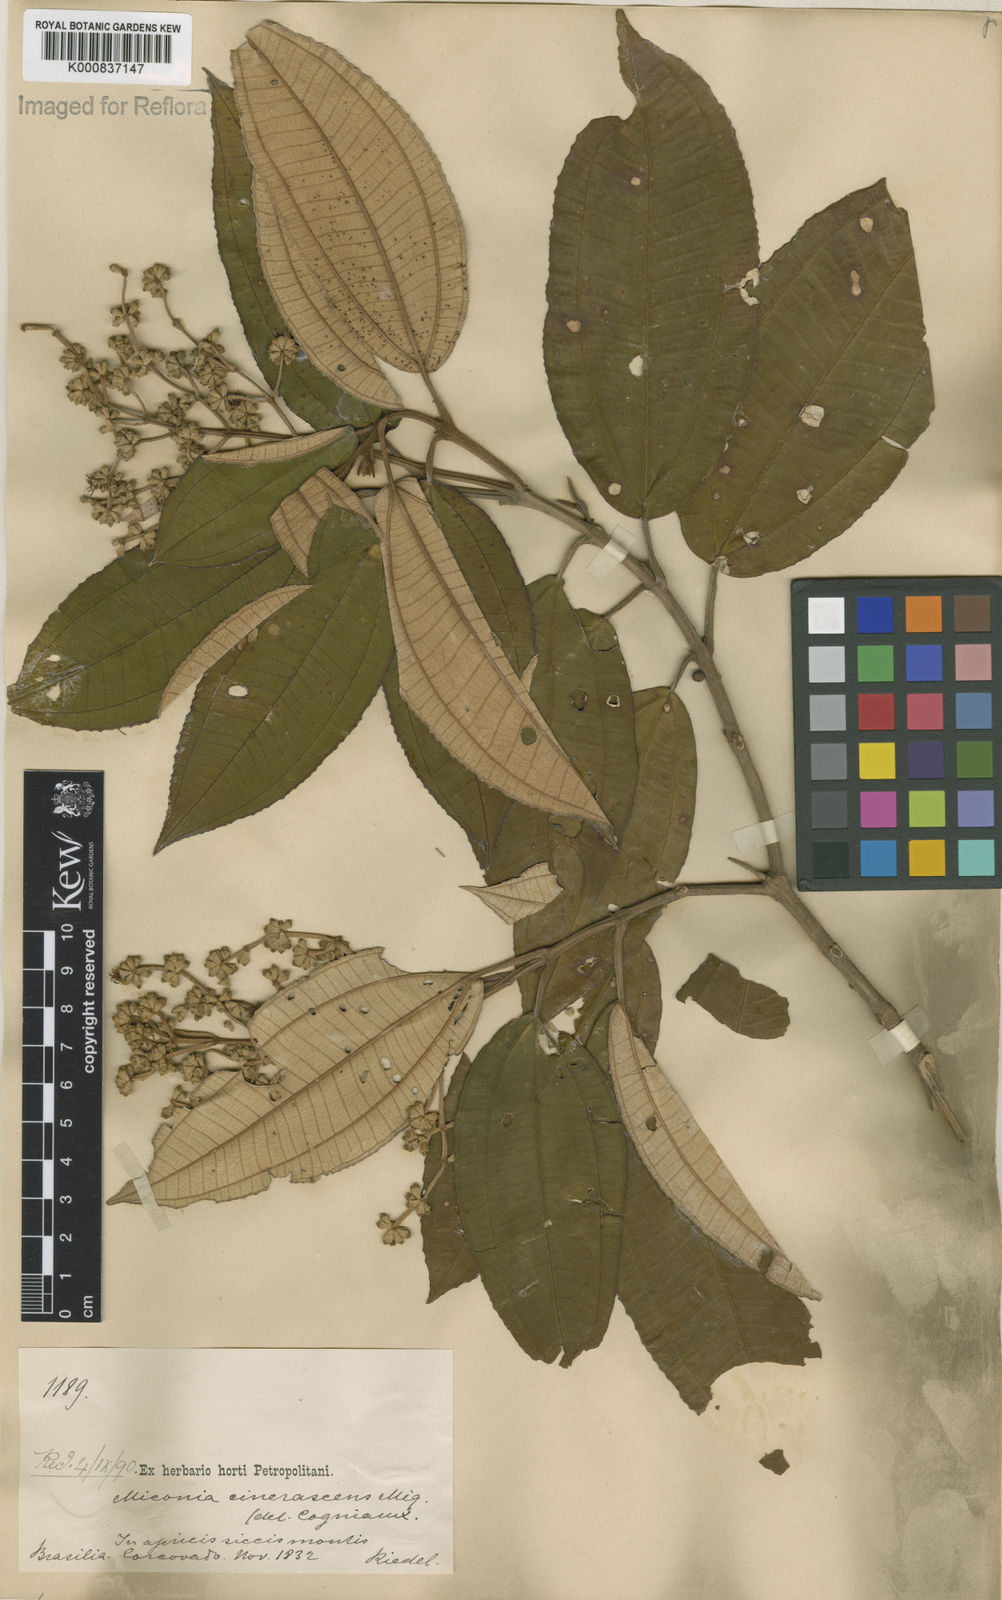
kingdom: Plantae
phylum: Tracheophyta
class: Magnoliopsida
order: Myrtales
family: Melastomataceae
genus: Miconia
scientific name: Miconia cinerascens
